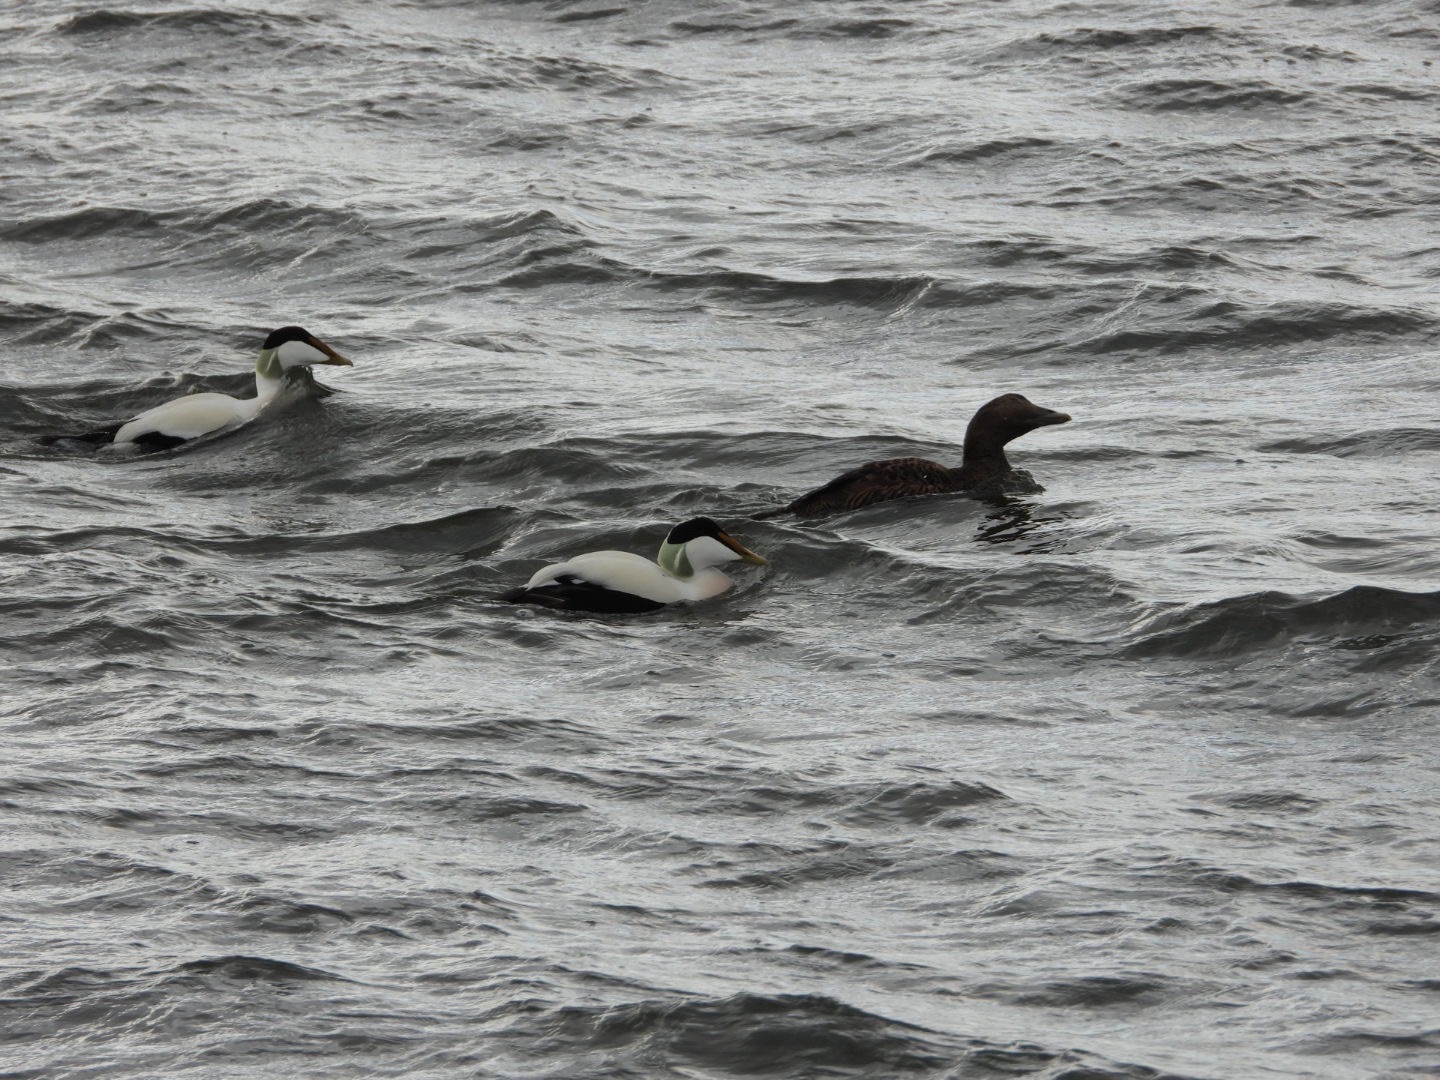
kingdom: Animalia
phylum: Chordata
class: Aves
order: Anseriformes
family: Anatidae
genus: Somateria
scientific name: Somateria mollissima
